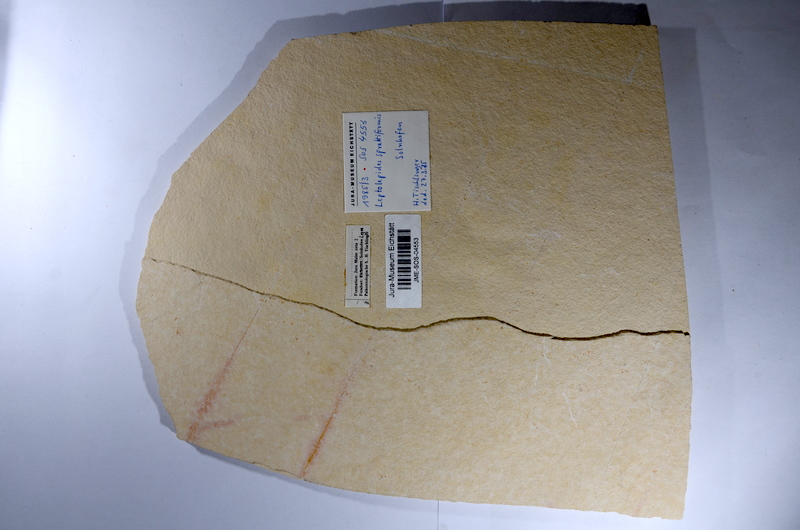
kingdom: Animalia
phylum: Chordata
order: Salmoniformes
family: Orthogonikleithridae
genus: Leptolepides
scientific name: Leptolepides sprattiformis
